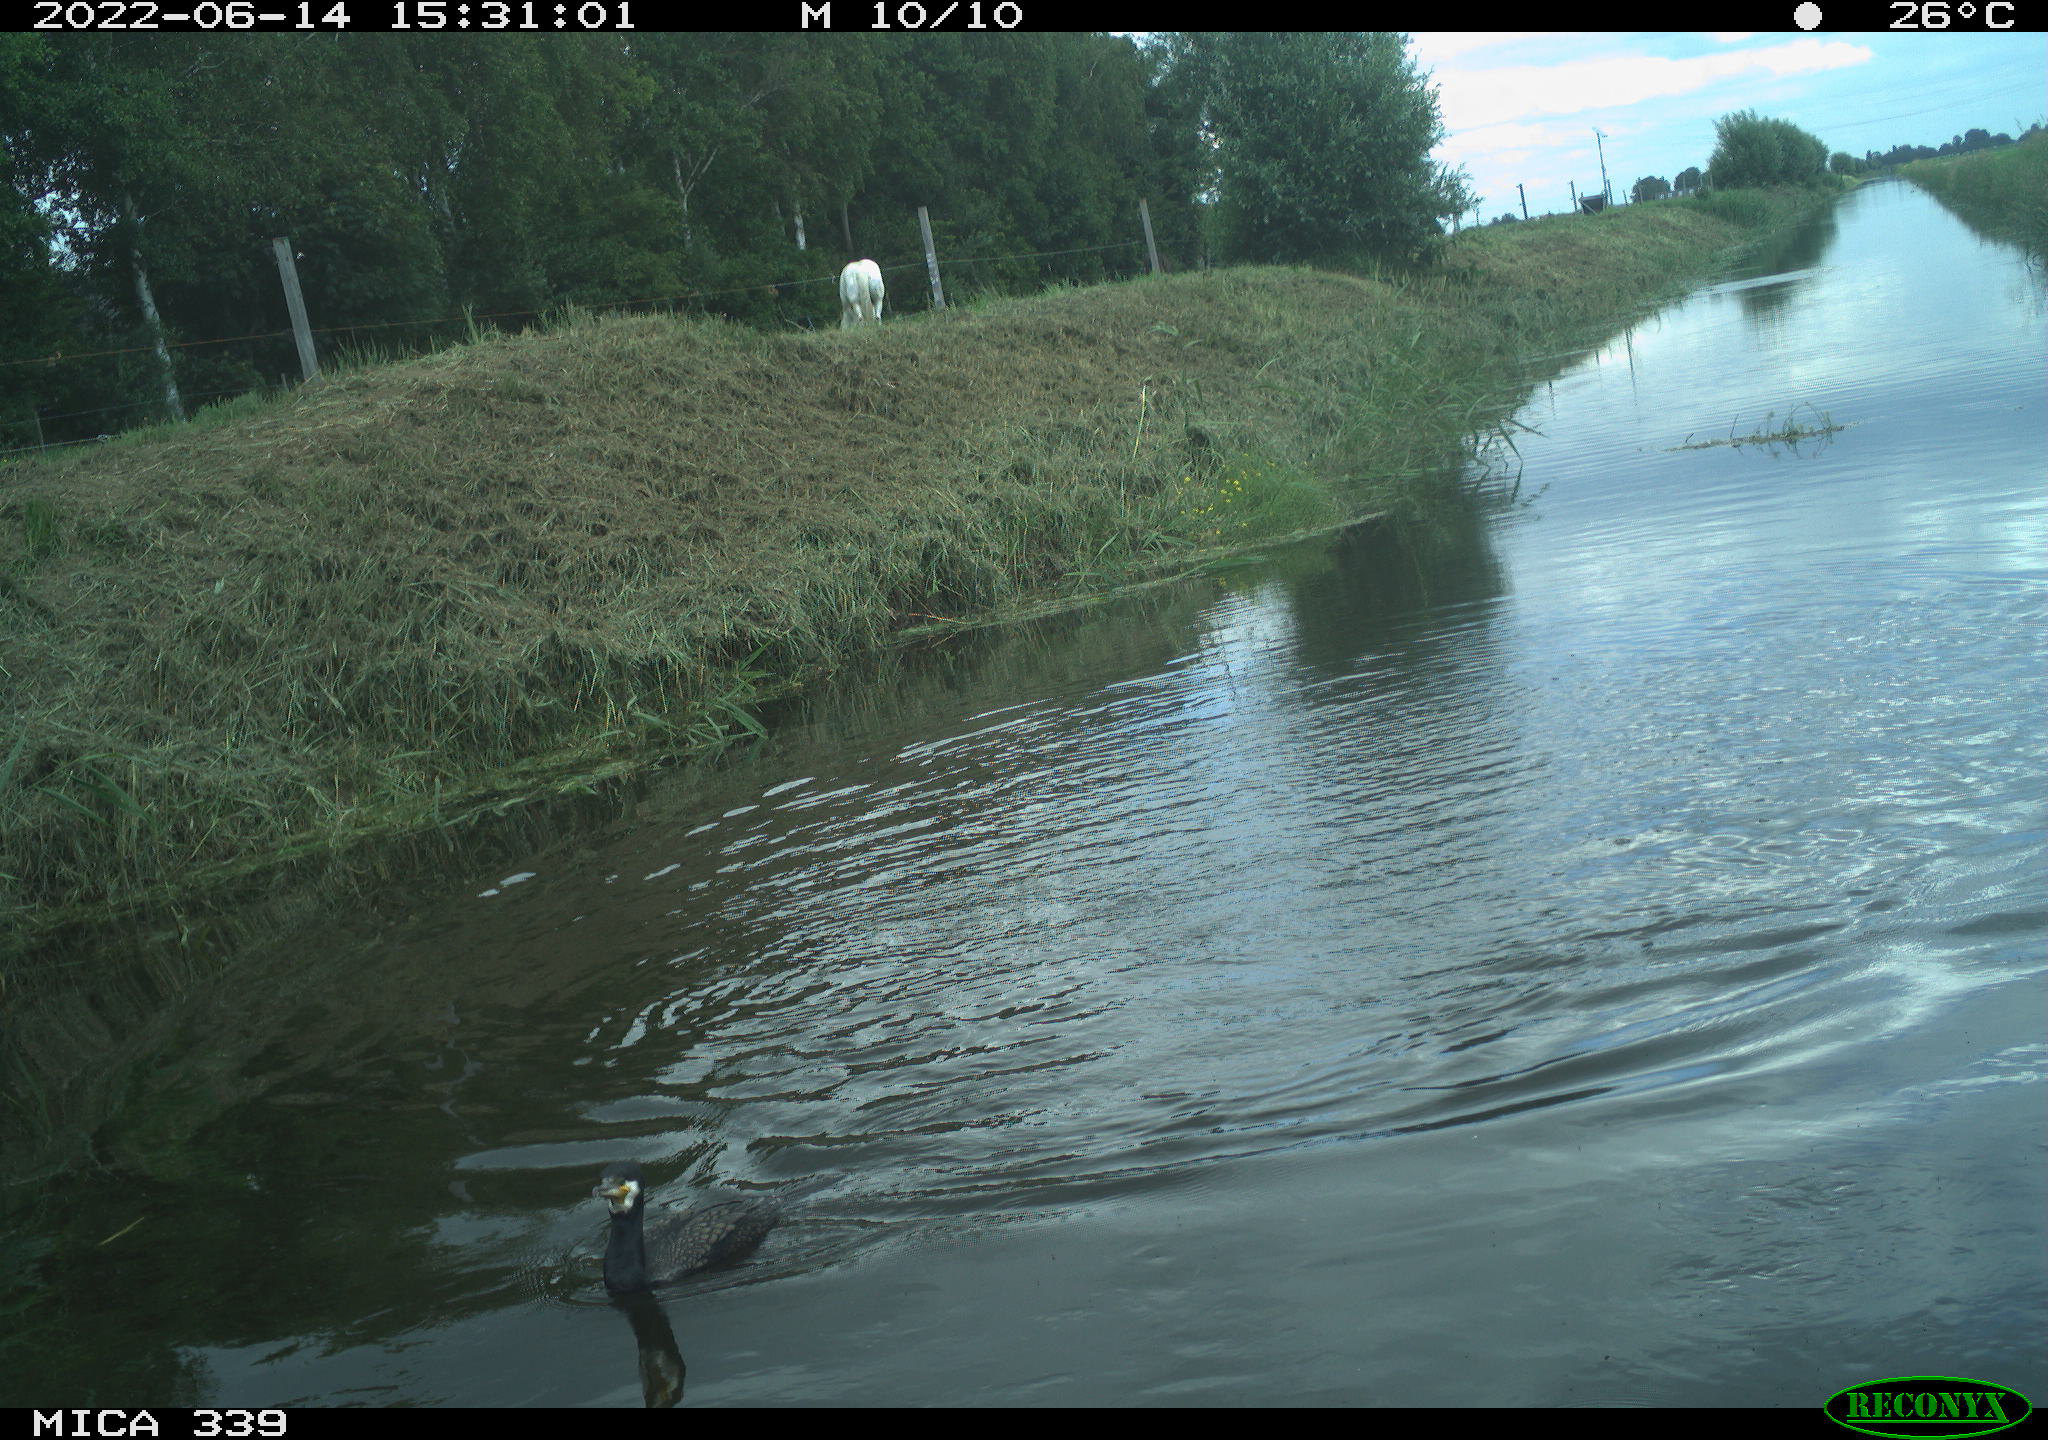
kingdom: Animalia
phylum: Chordata
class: Aves
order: Gruiformes
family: Rallidae
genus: Gallinula
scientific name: Gallinula chloropus
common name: Common moorhen
